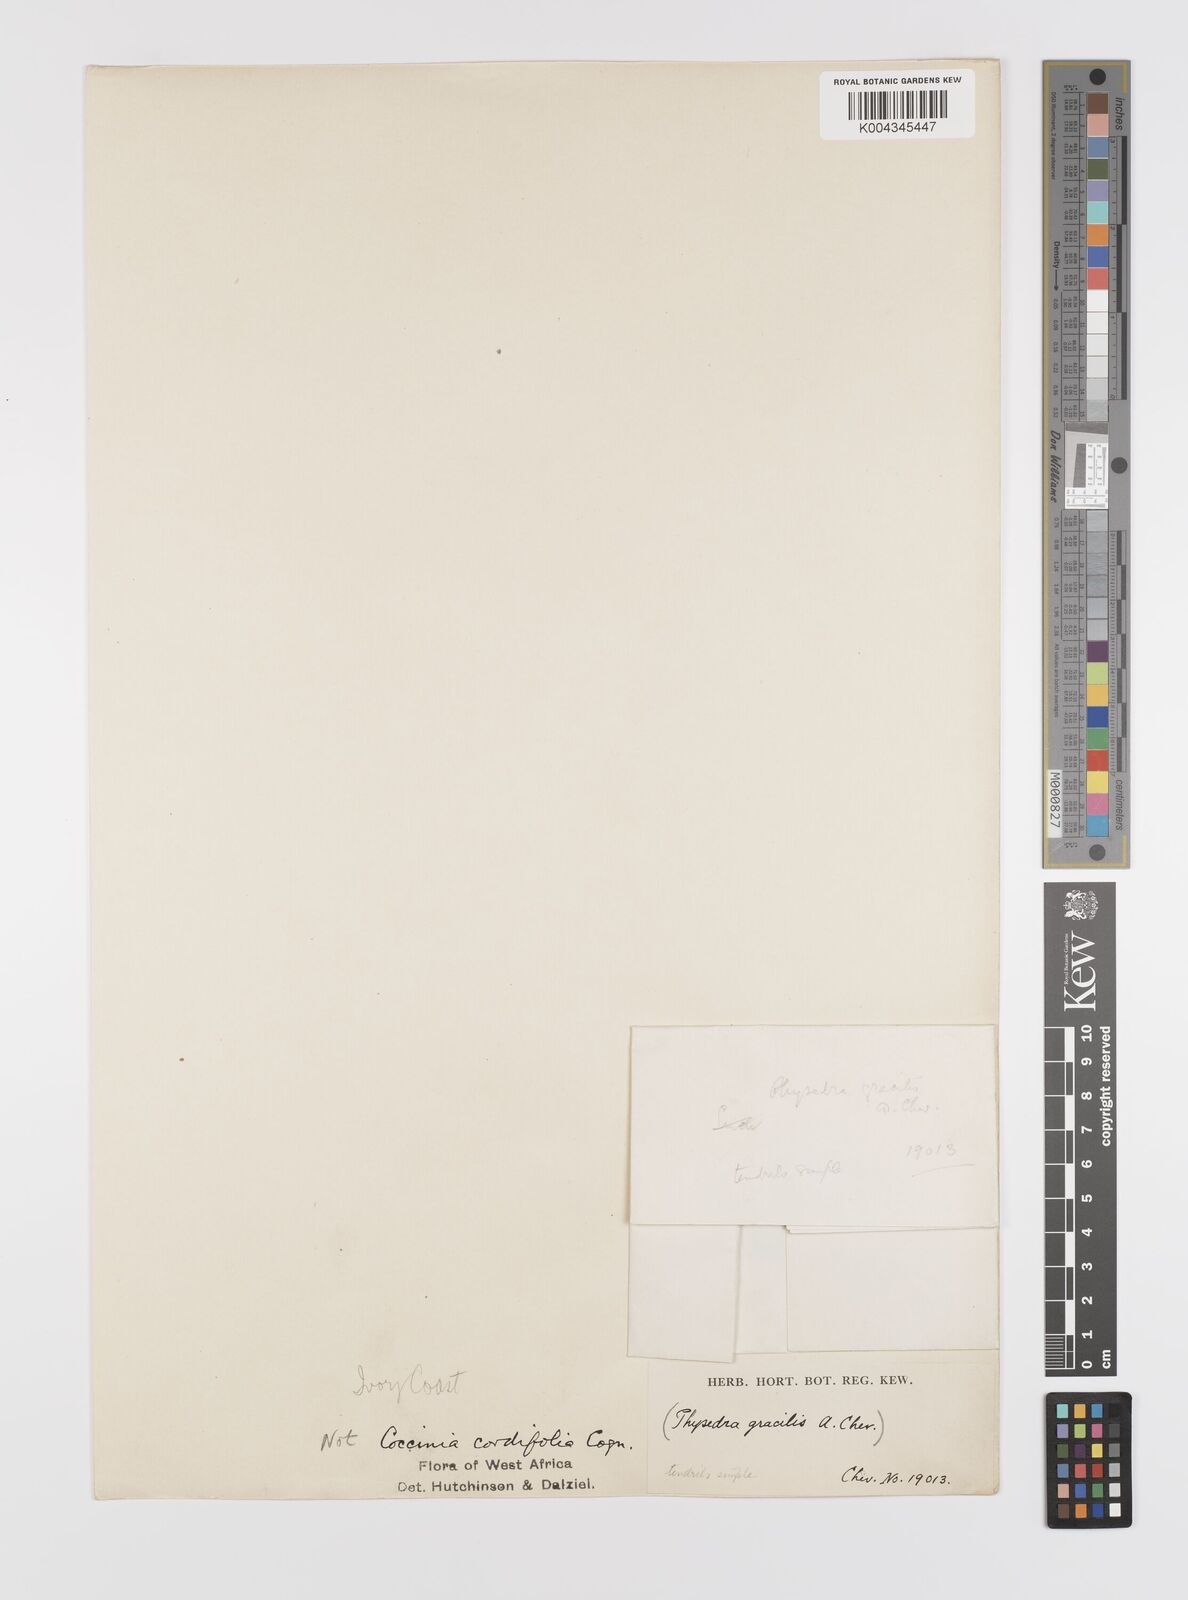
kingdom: Plantae
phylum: Tracheophyta
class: Magnoliopsida
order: Cucurbitales
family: Cucurbitaceae
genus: Coccinia
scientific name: Coccinia keayana
